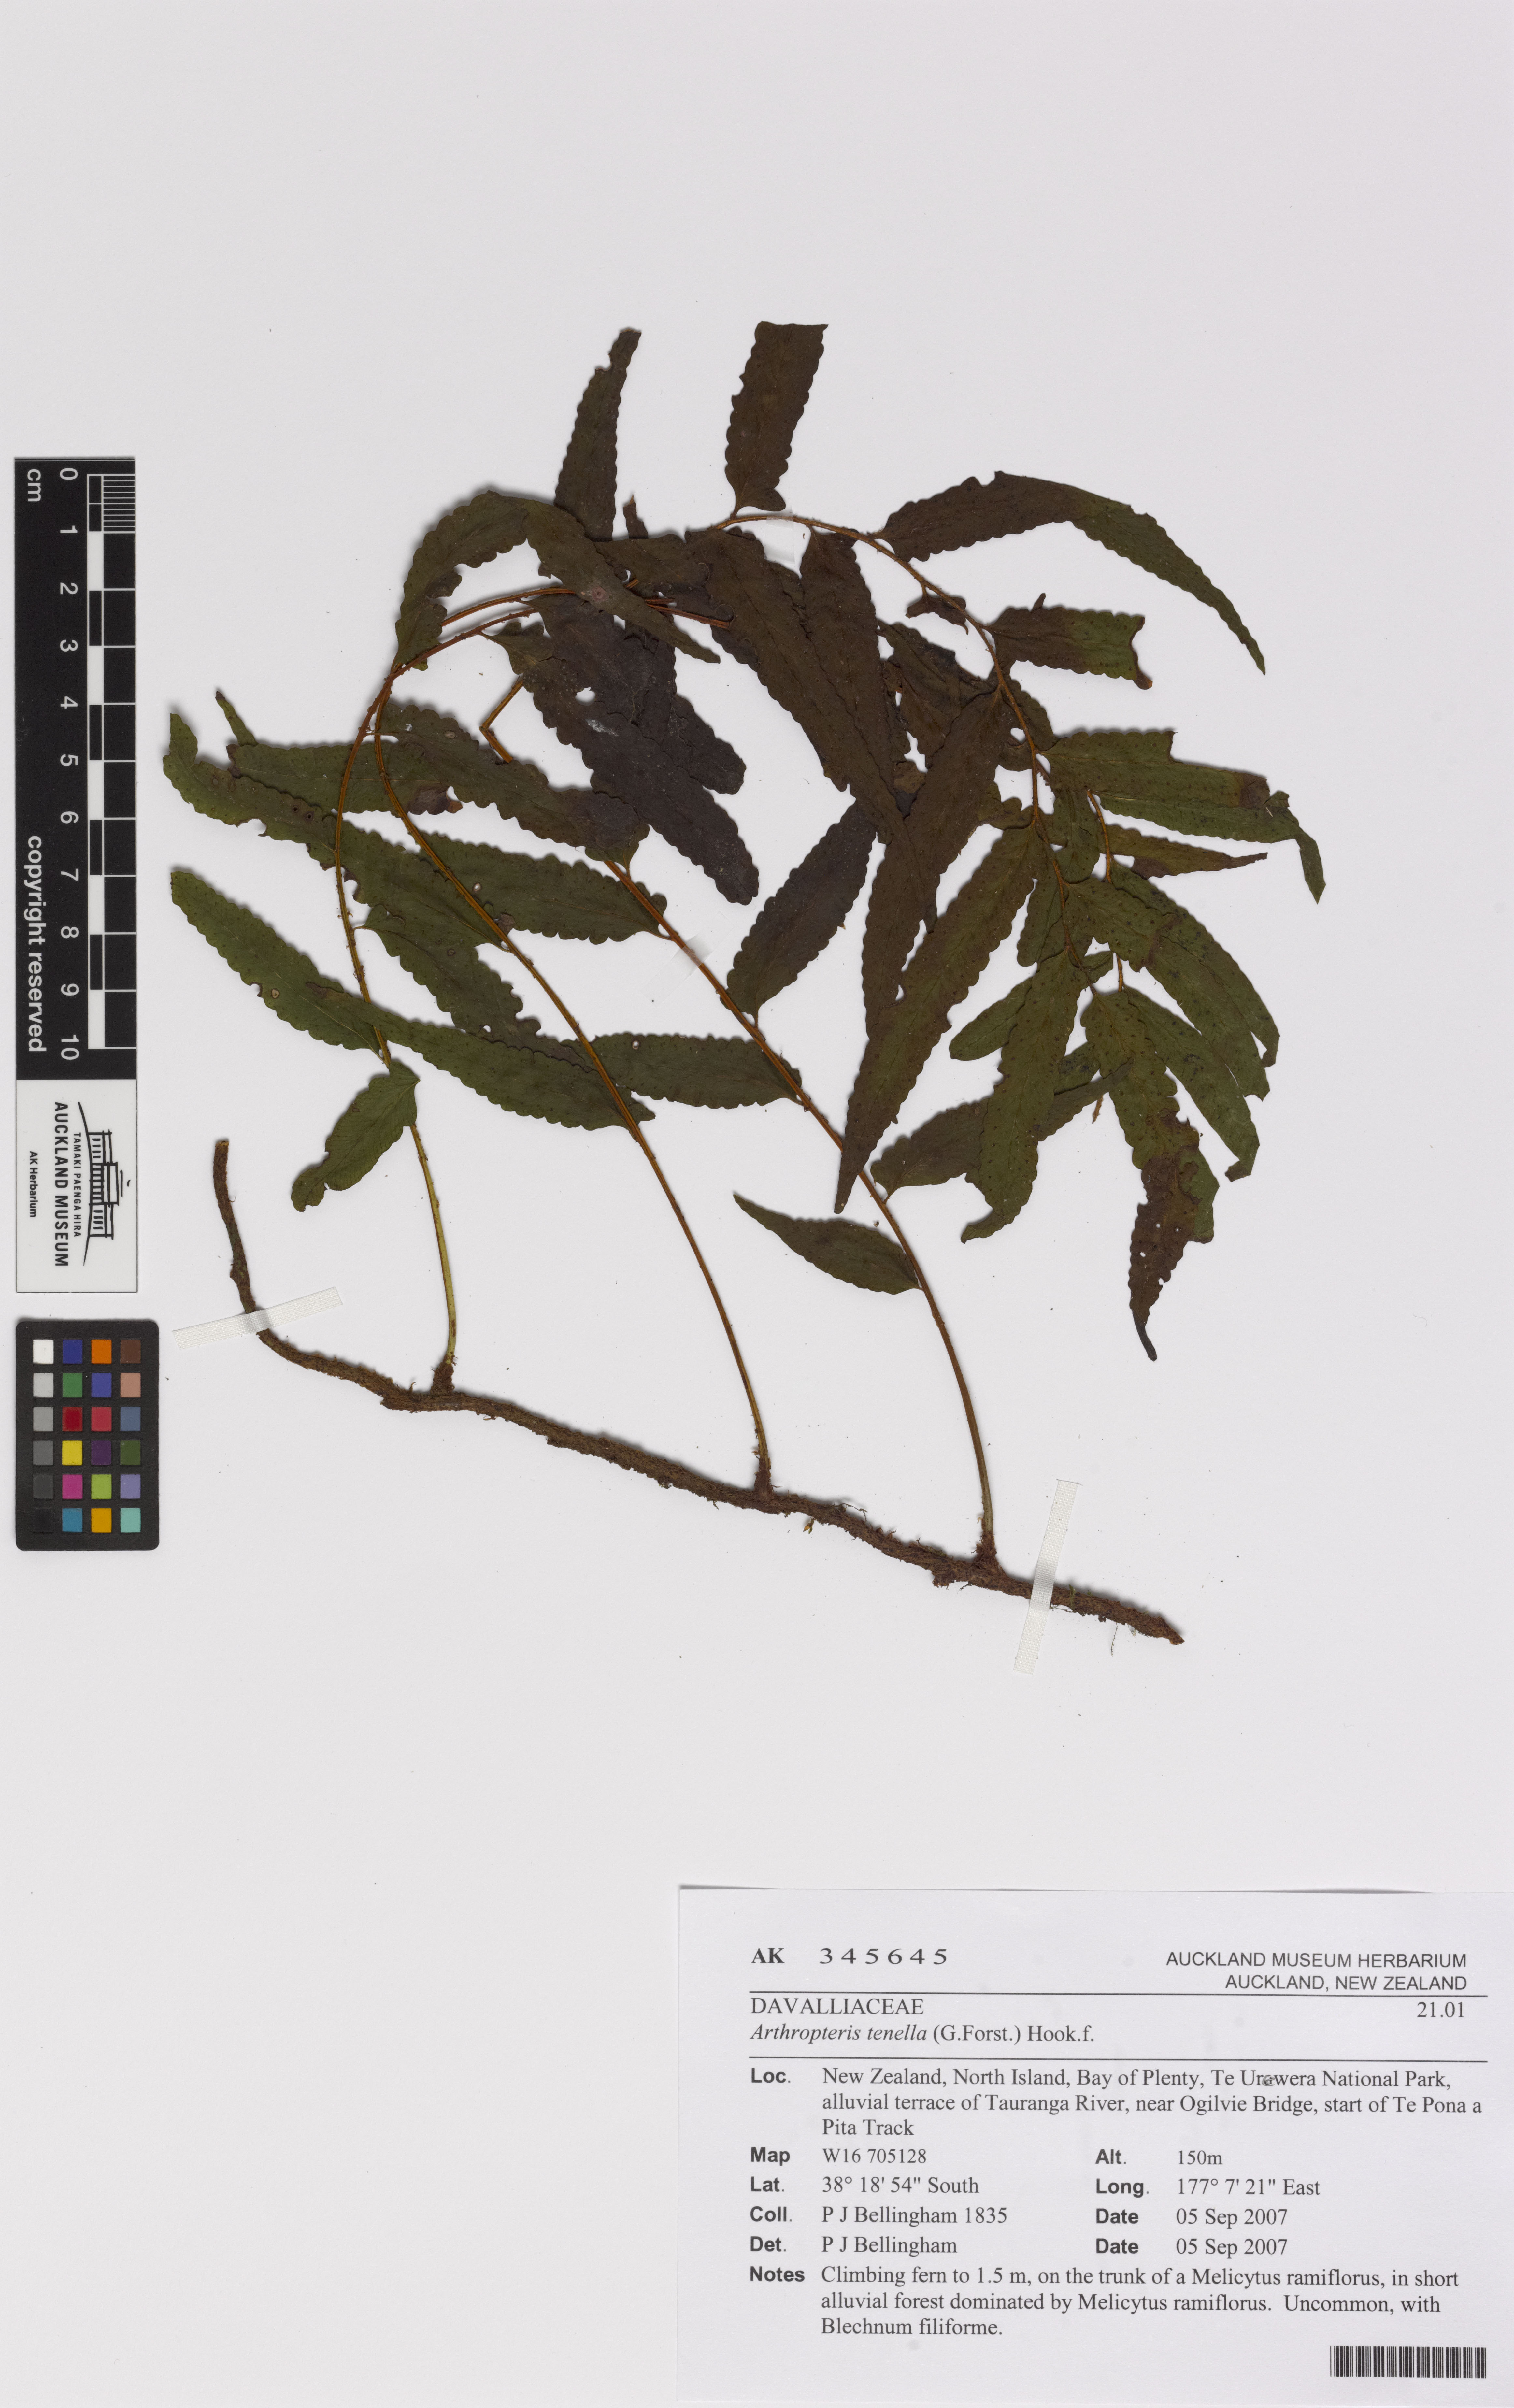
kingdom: Plantae
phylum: Tracheophyta
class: Polypodiopsida
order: Polypodiales
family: Tectariaceae
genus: Arthropteris
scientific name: Arthropteris tenella
